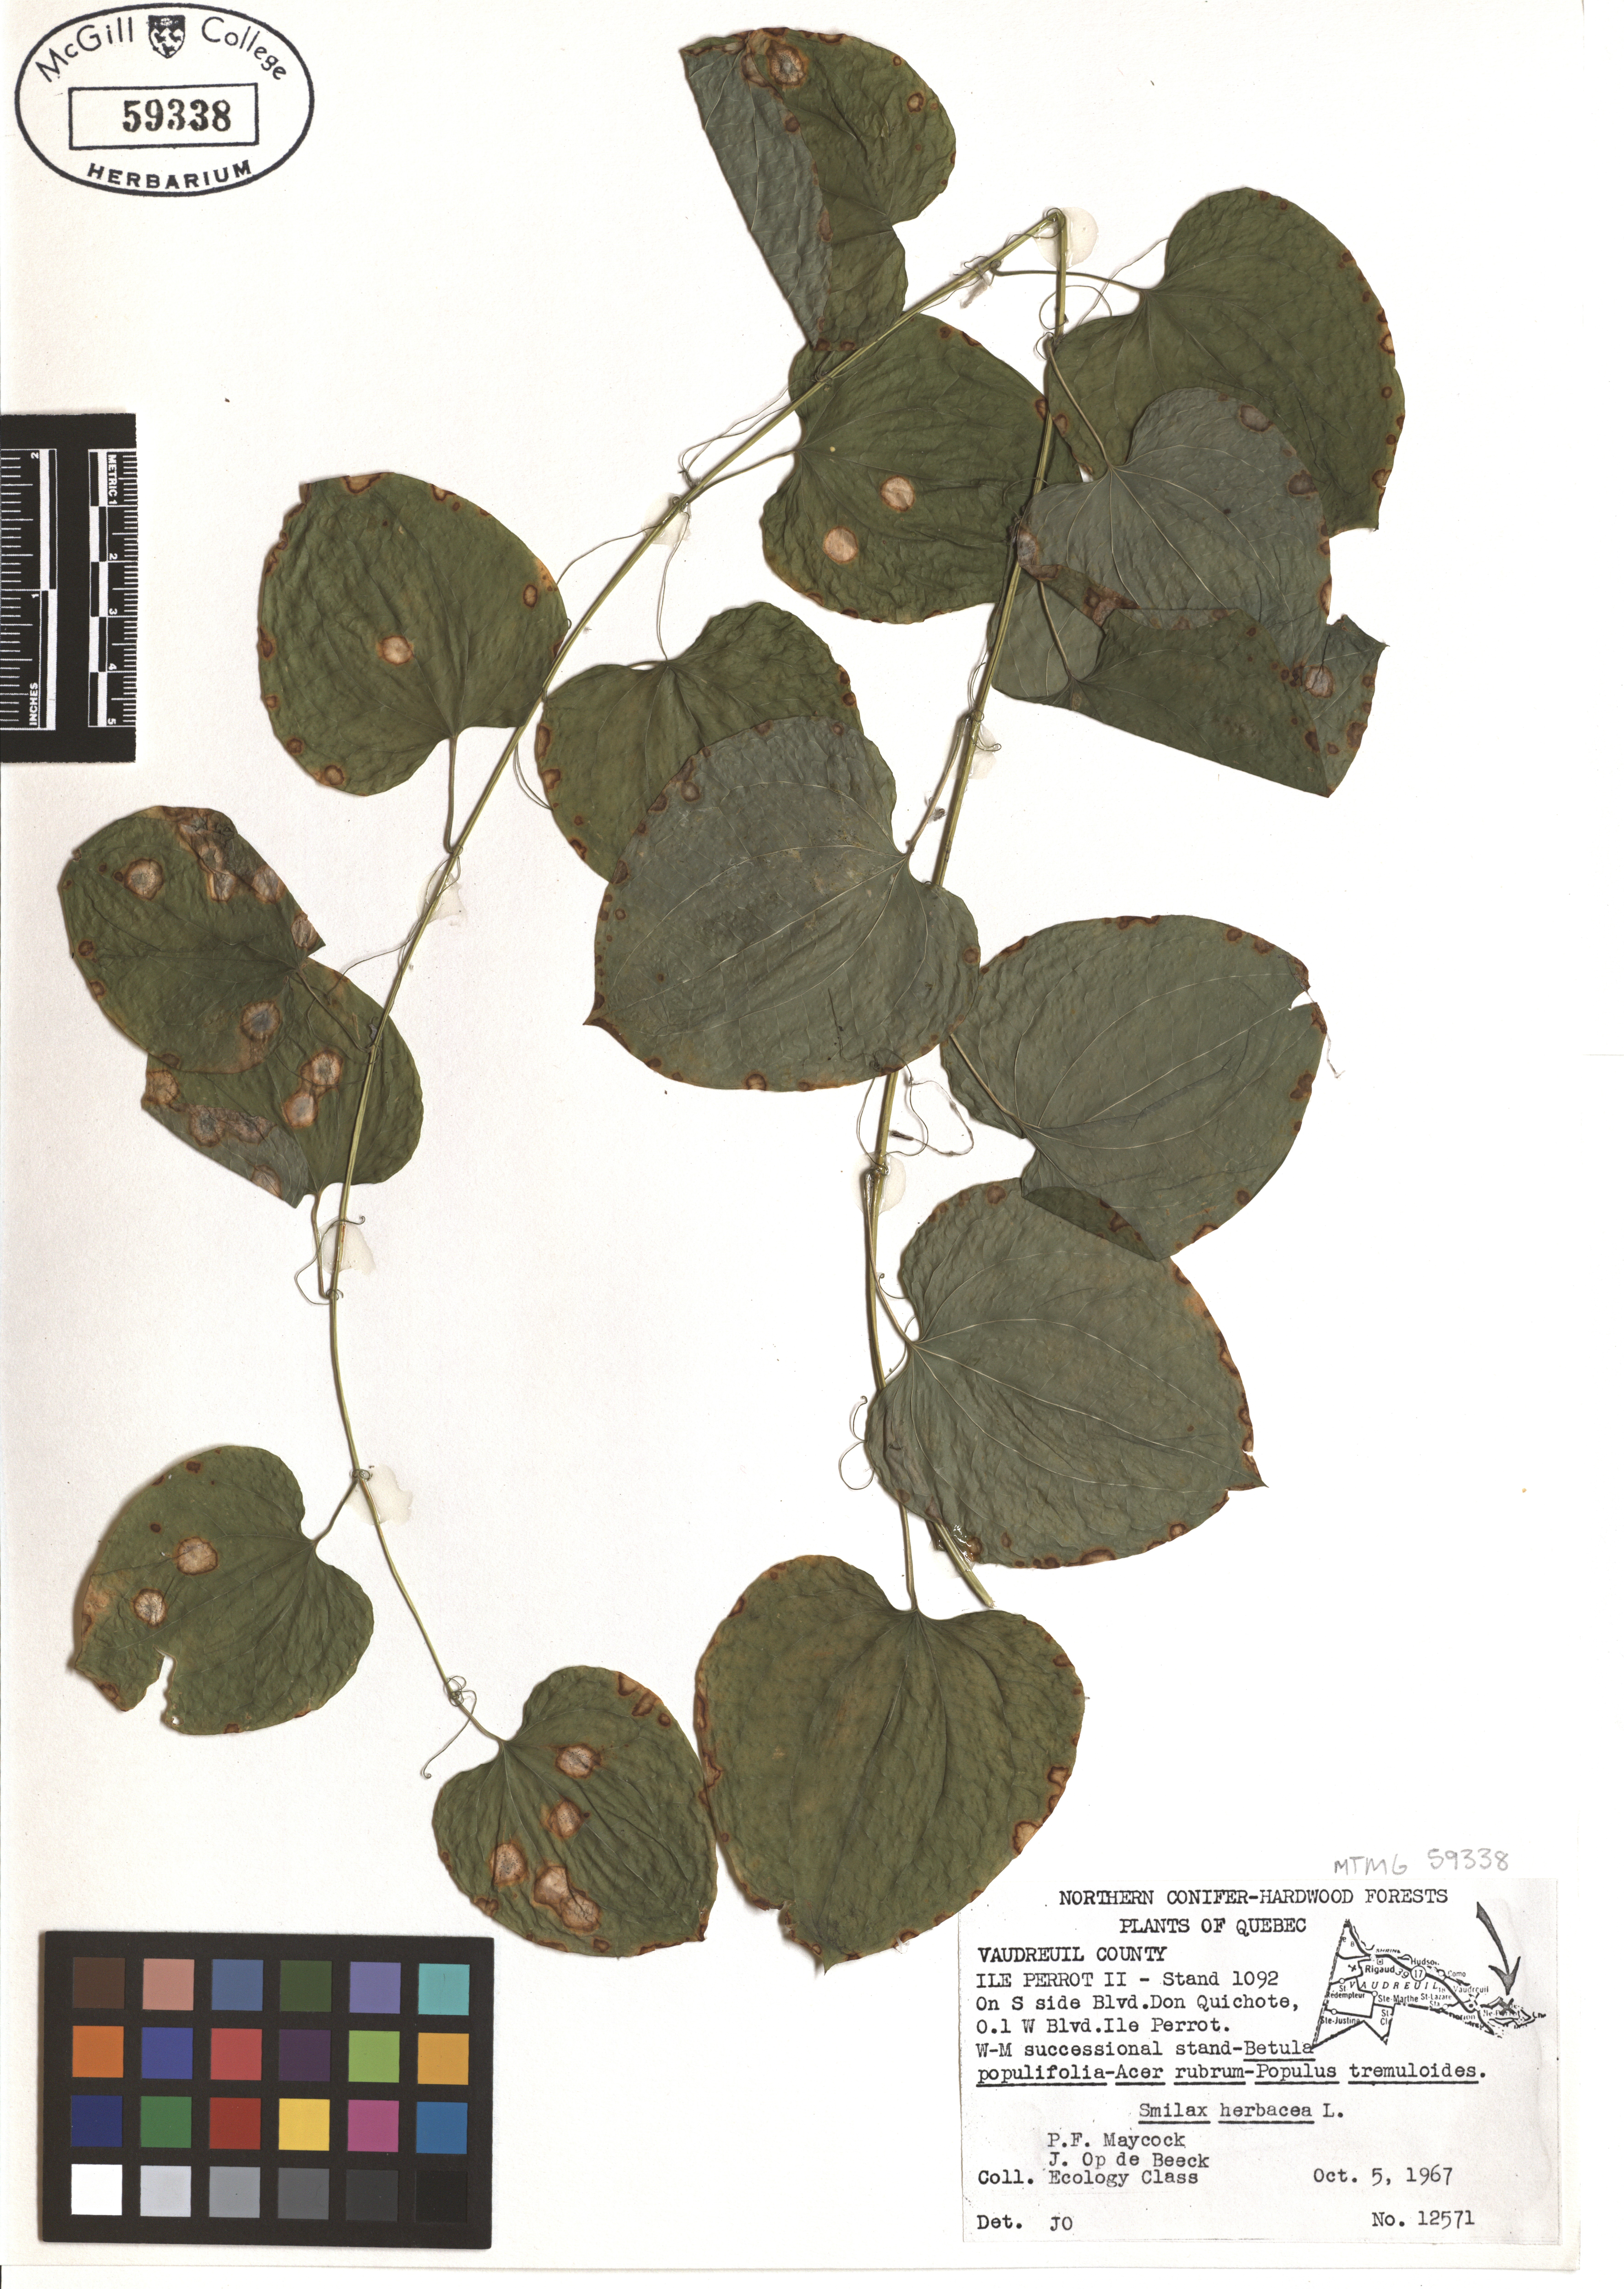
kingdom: Plantae
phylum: Tracheophyta
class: Liliopsida
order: Liliales
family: Smilacaceae
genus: Smilax
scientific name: Smilax herbacea
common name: Jacob's-ladder
